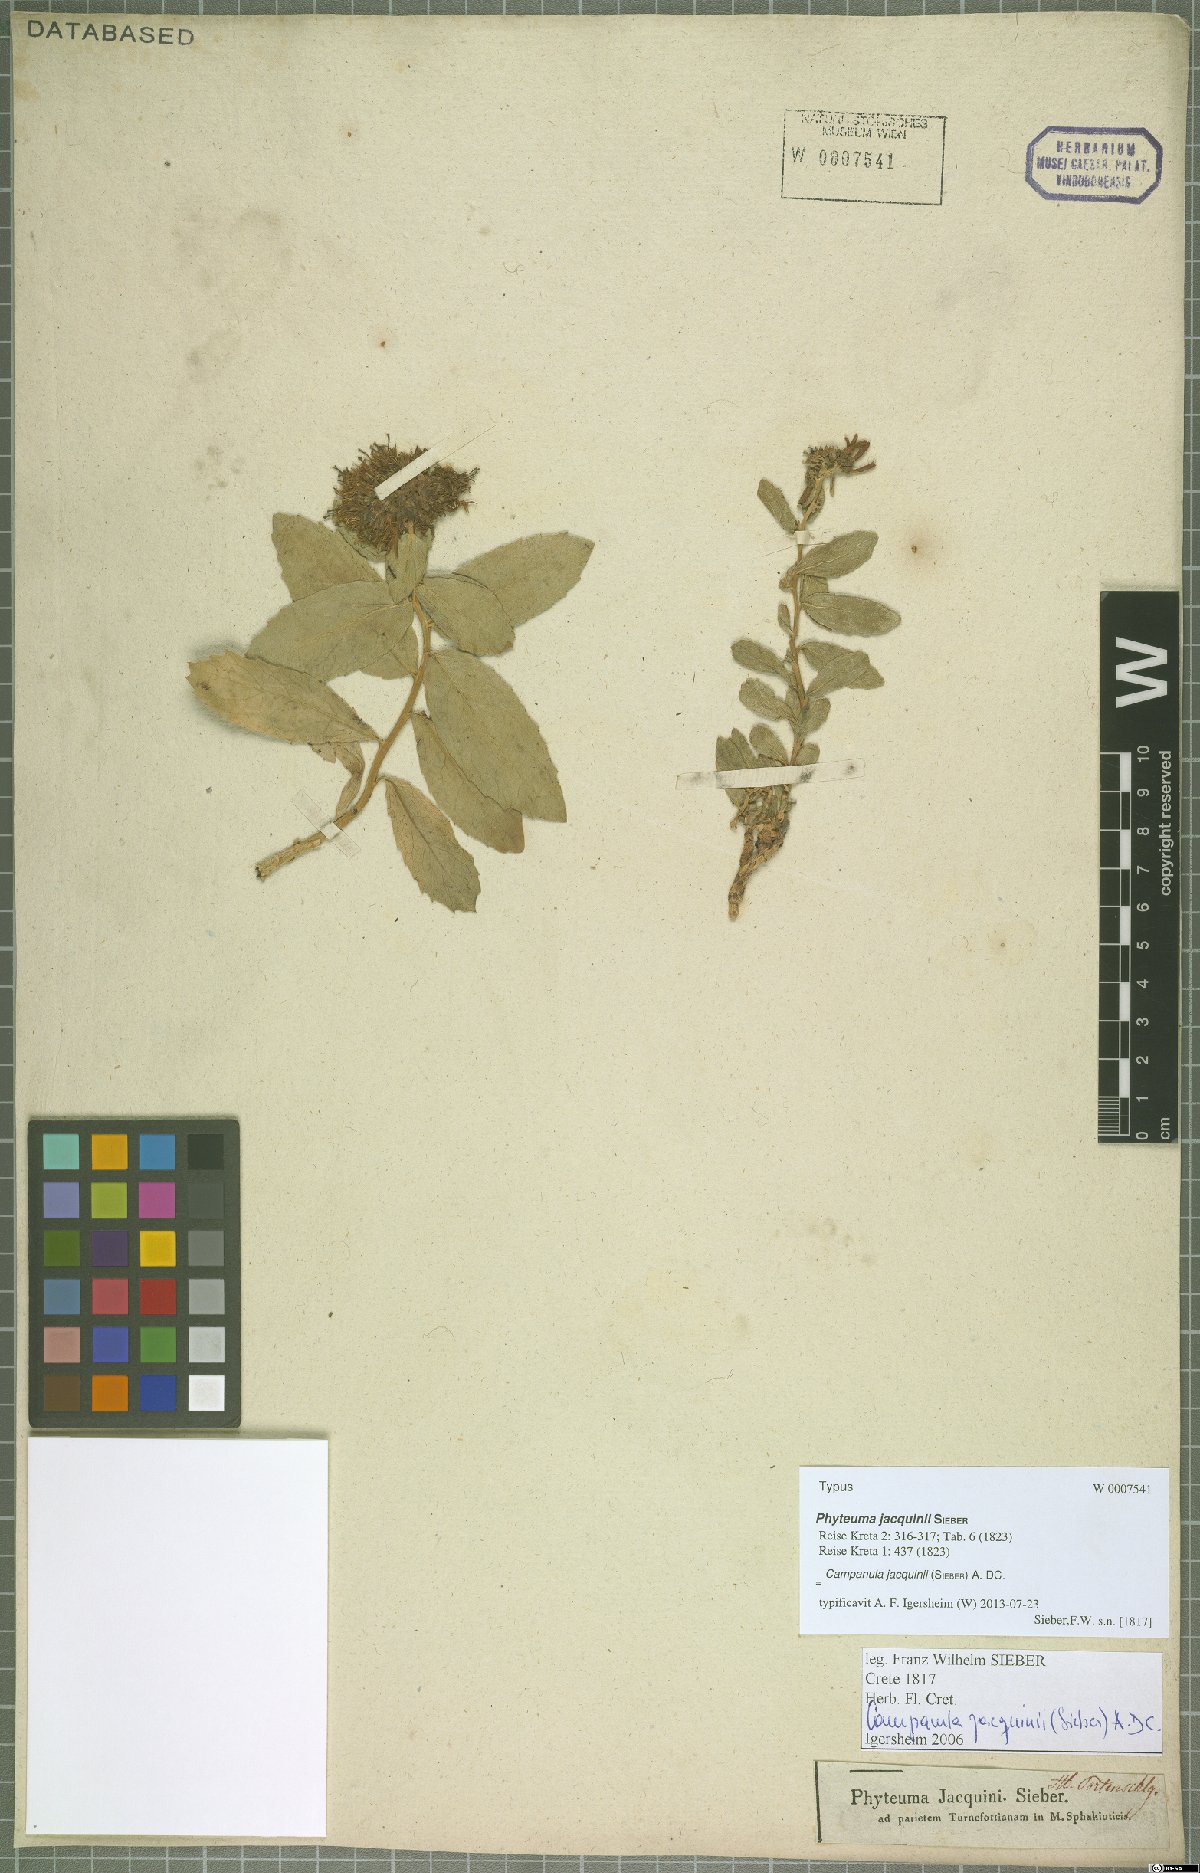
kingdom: Plantae
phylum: Tracheophyta
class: Magnoliopsida
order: Asterales
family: Campanulaceae
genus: Campanula
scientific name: Campanula jacquinii
